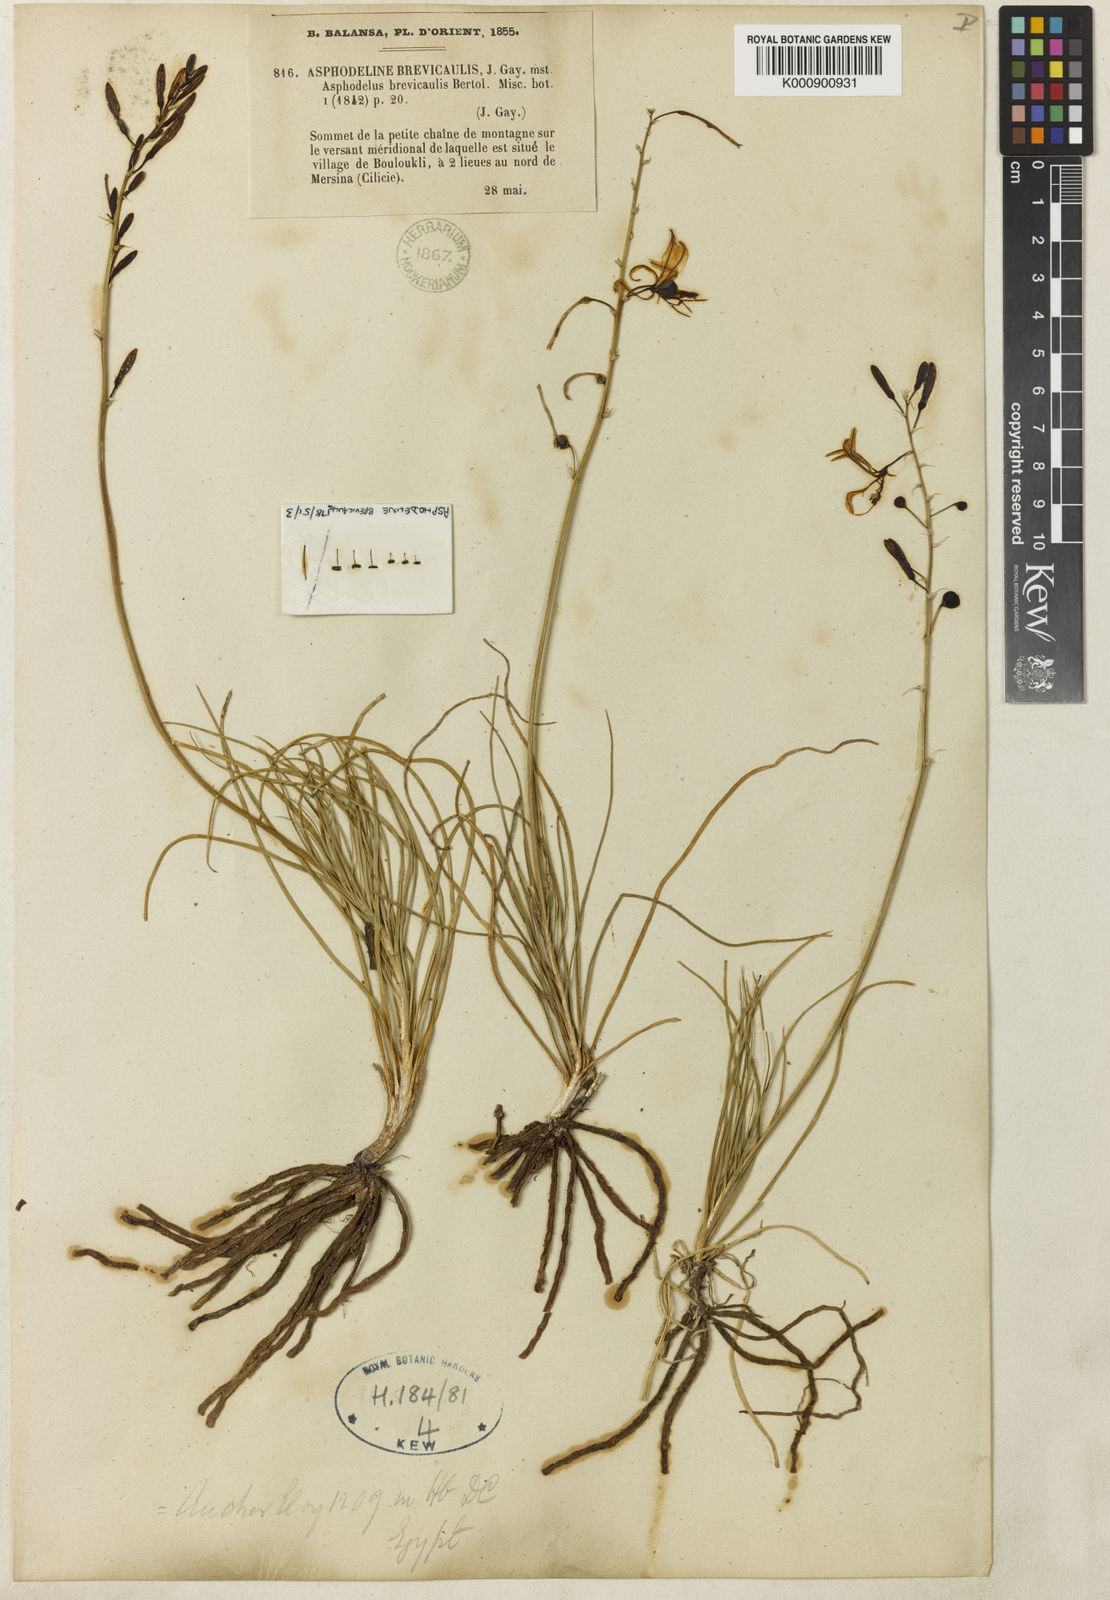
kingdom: Plantae
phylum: Tracheophyta
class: Liliopsida
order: Asparagales
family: Asphodelaceae
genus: Asphodeline
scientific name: Asphodeline brevicaulis
